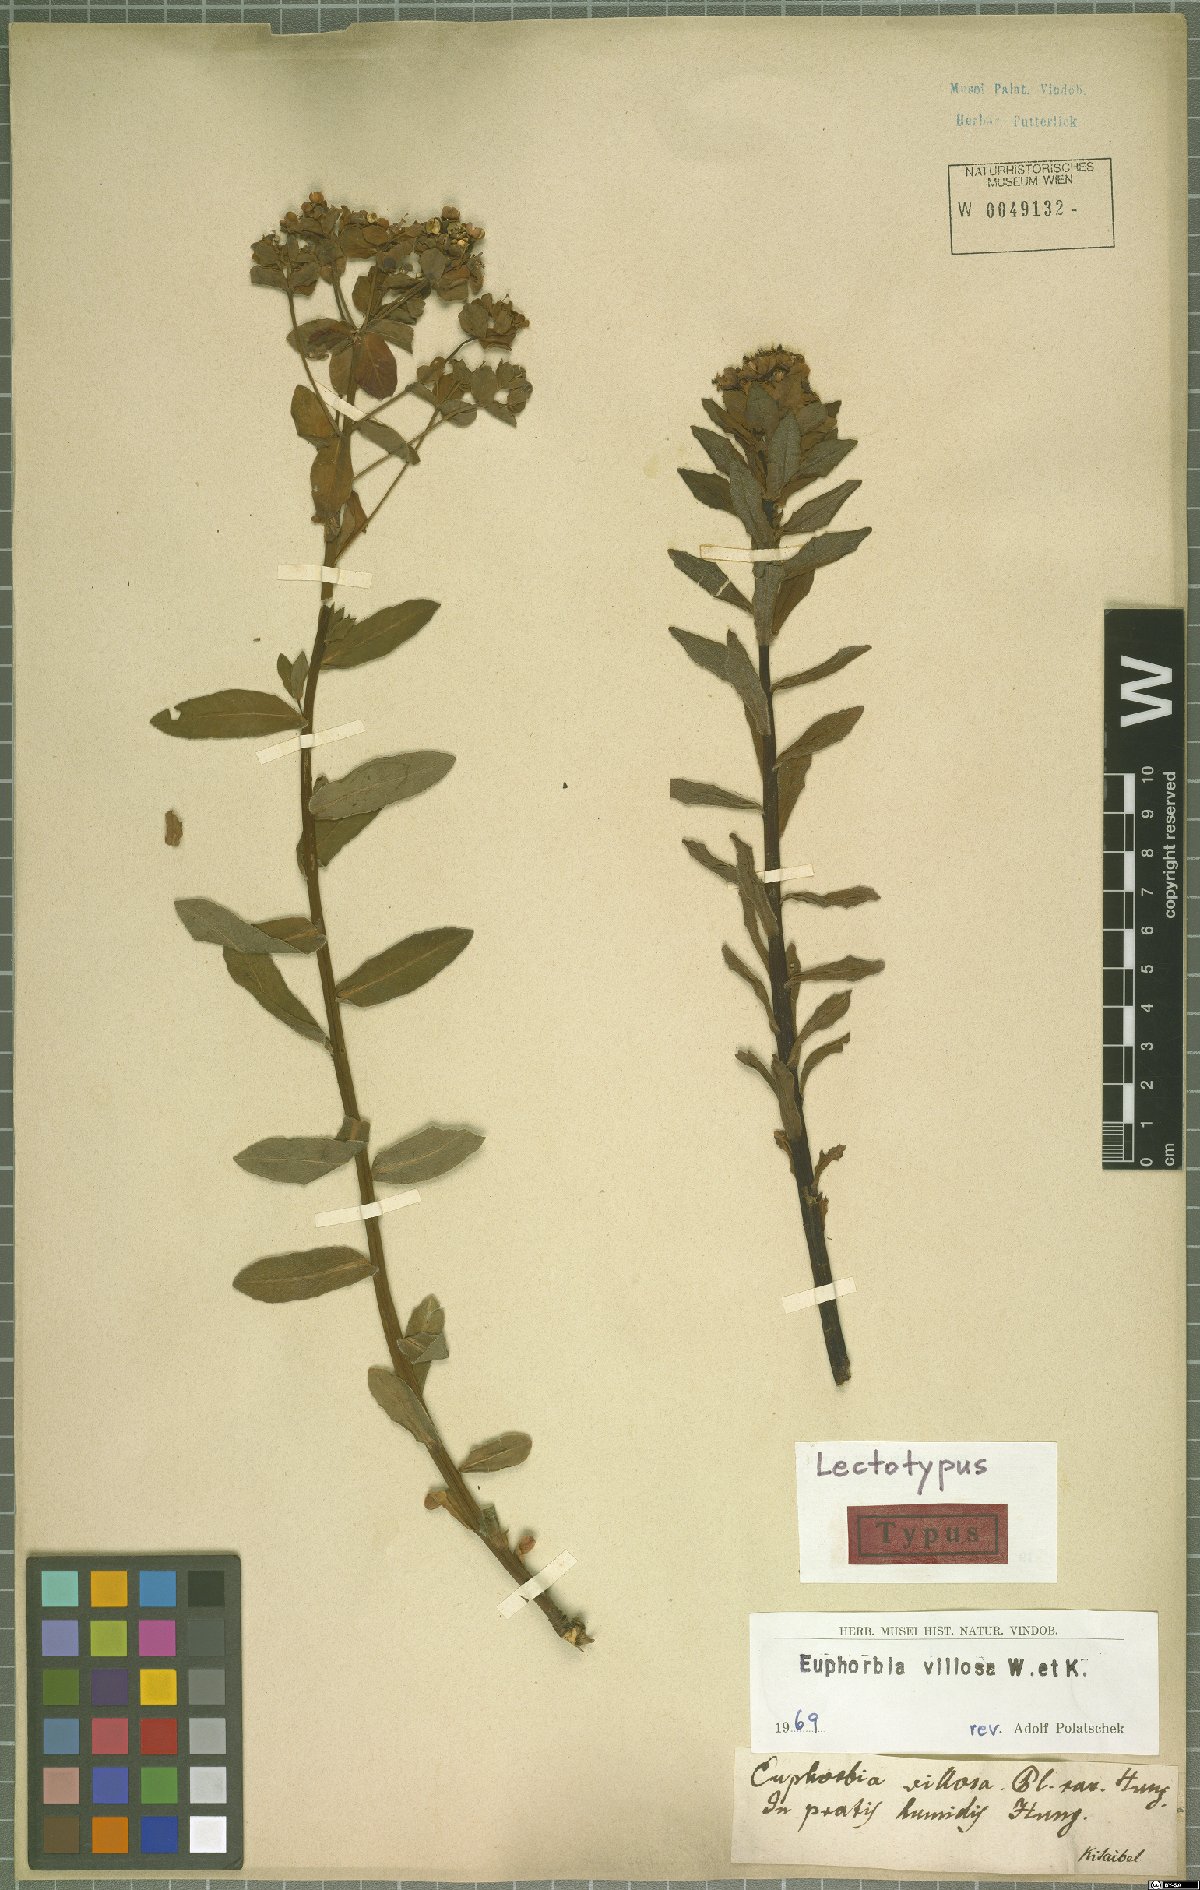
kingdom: Plantae
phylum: Tracheophyta
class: Magnoliopsida
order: Malpighiales
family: Euphorbiaceae
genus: Euphorbia
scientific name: Euphorbia illirica
